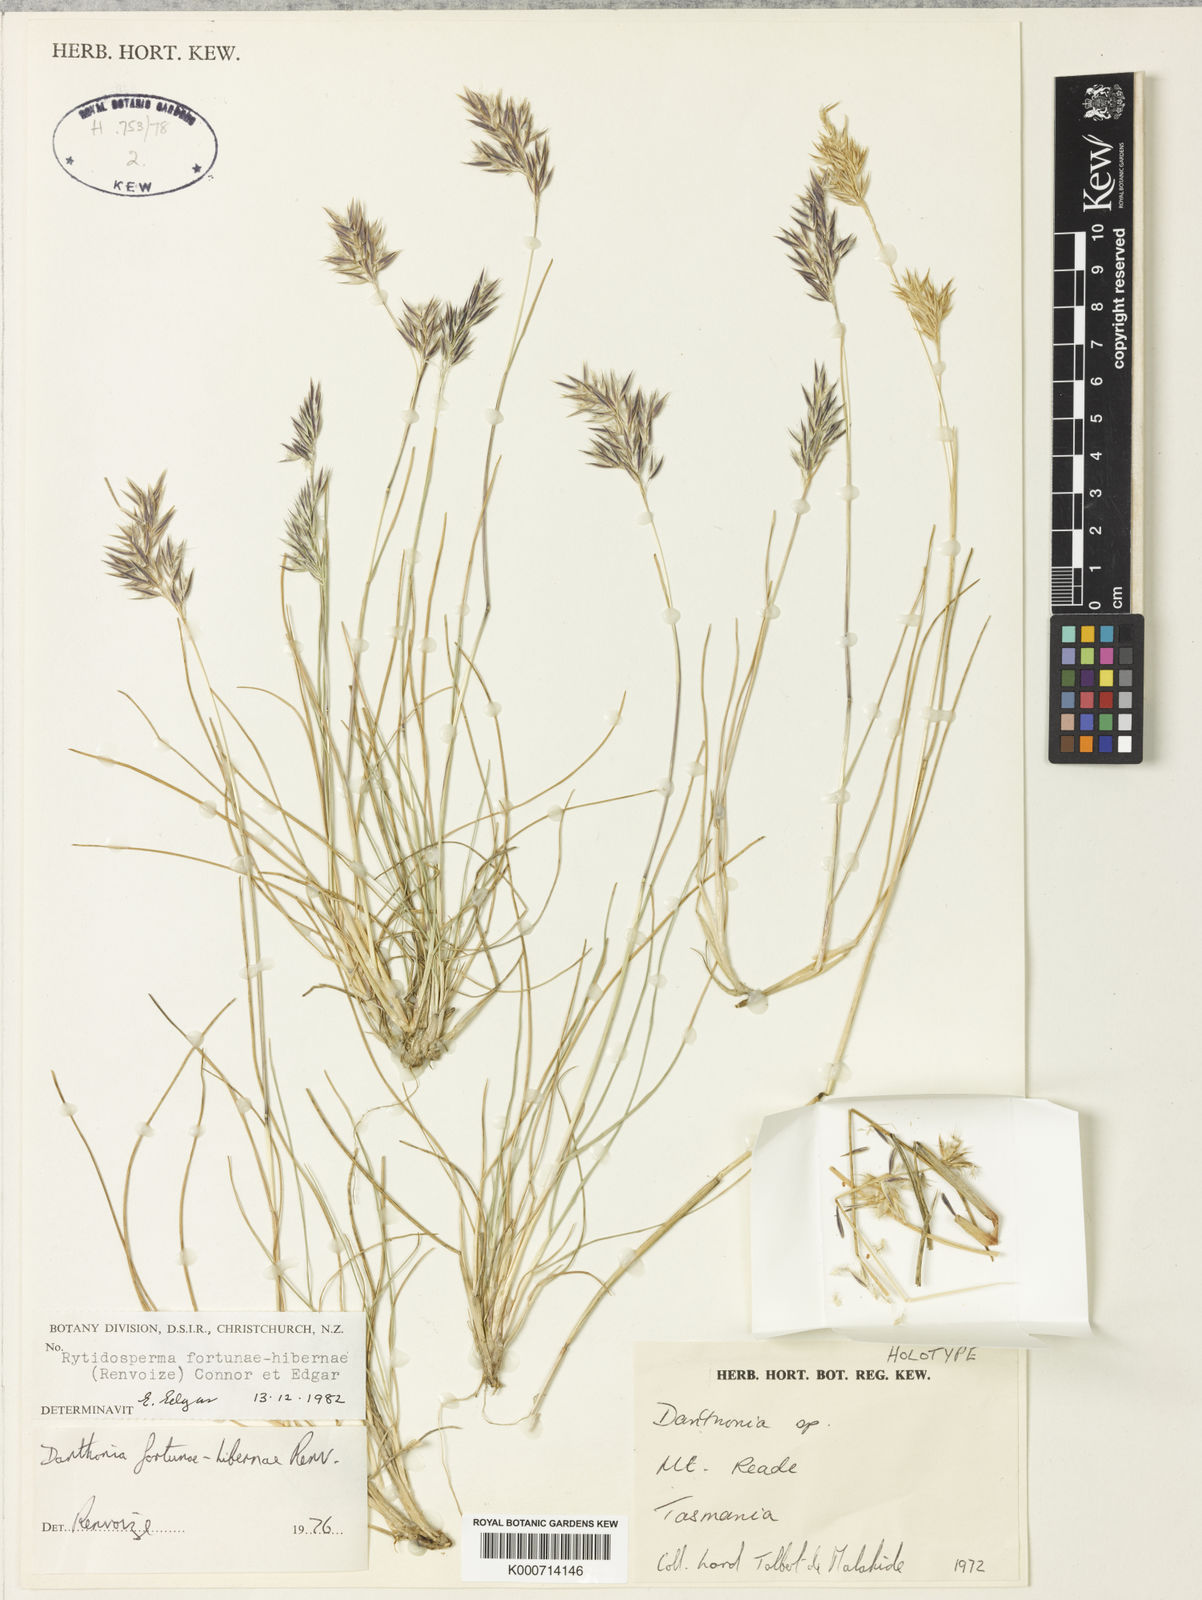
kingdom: Plantae
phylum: Tracheophyta
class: Liliopsida
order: Poales
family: Poaceae
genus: Rytidosperma
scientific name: Rytidosperma fortunae-hibernae
